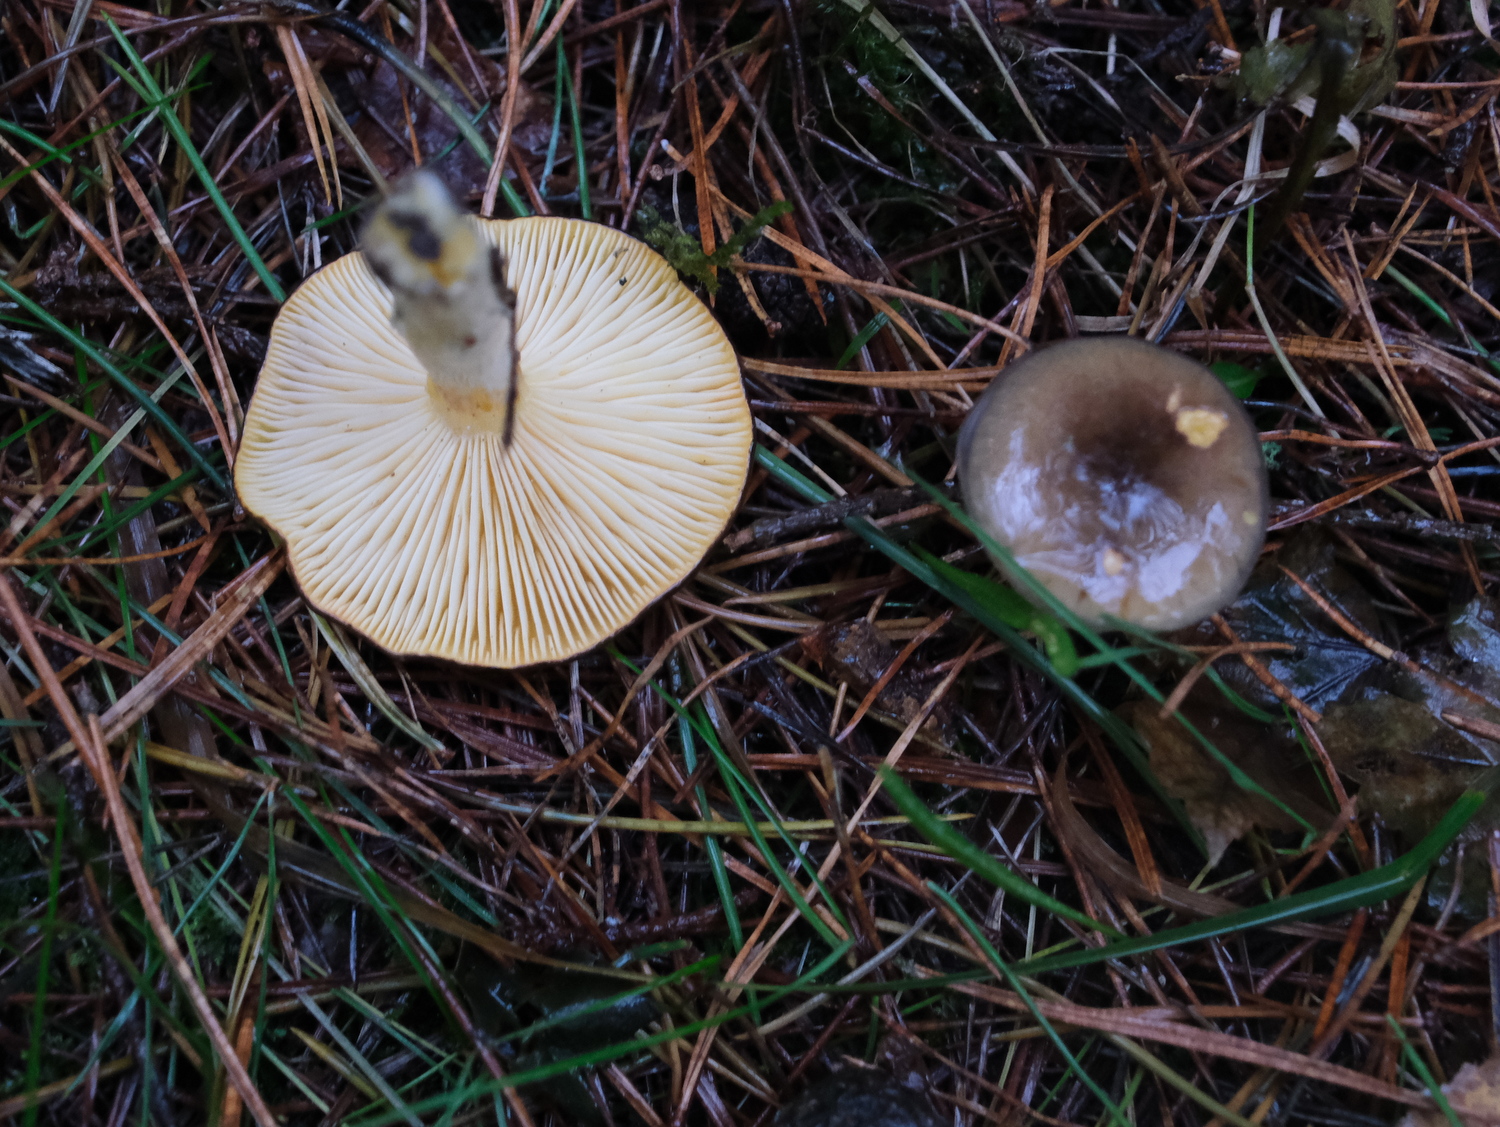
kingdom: Fungi
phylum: Basidiomycota
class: Agaricomycetes
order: Agaricales
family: Hygrophoraceae
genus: Hygrophorus
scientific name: Hygrophorus hypothejus
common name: frost-sneglehat
